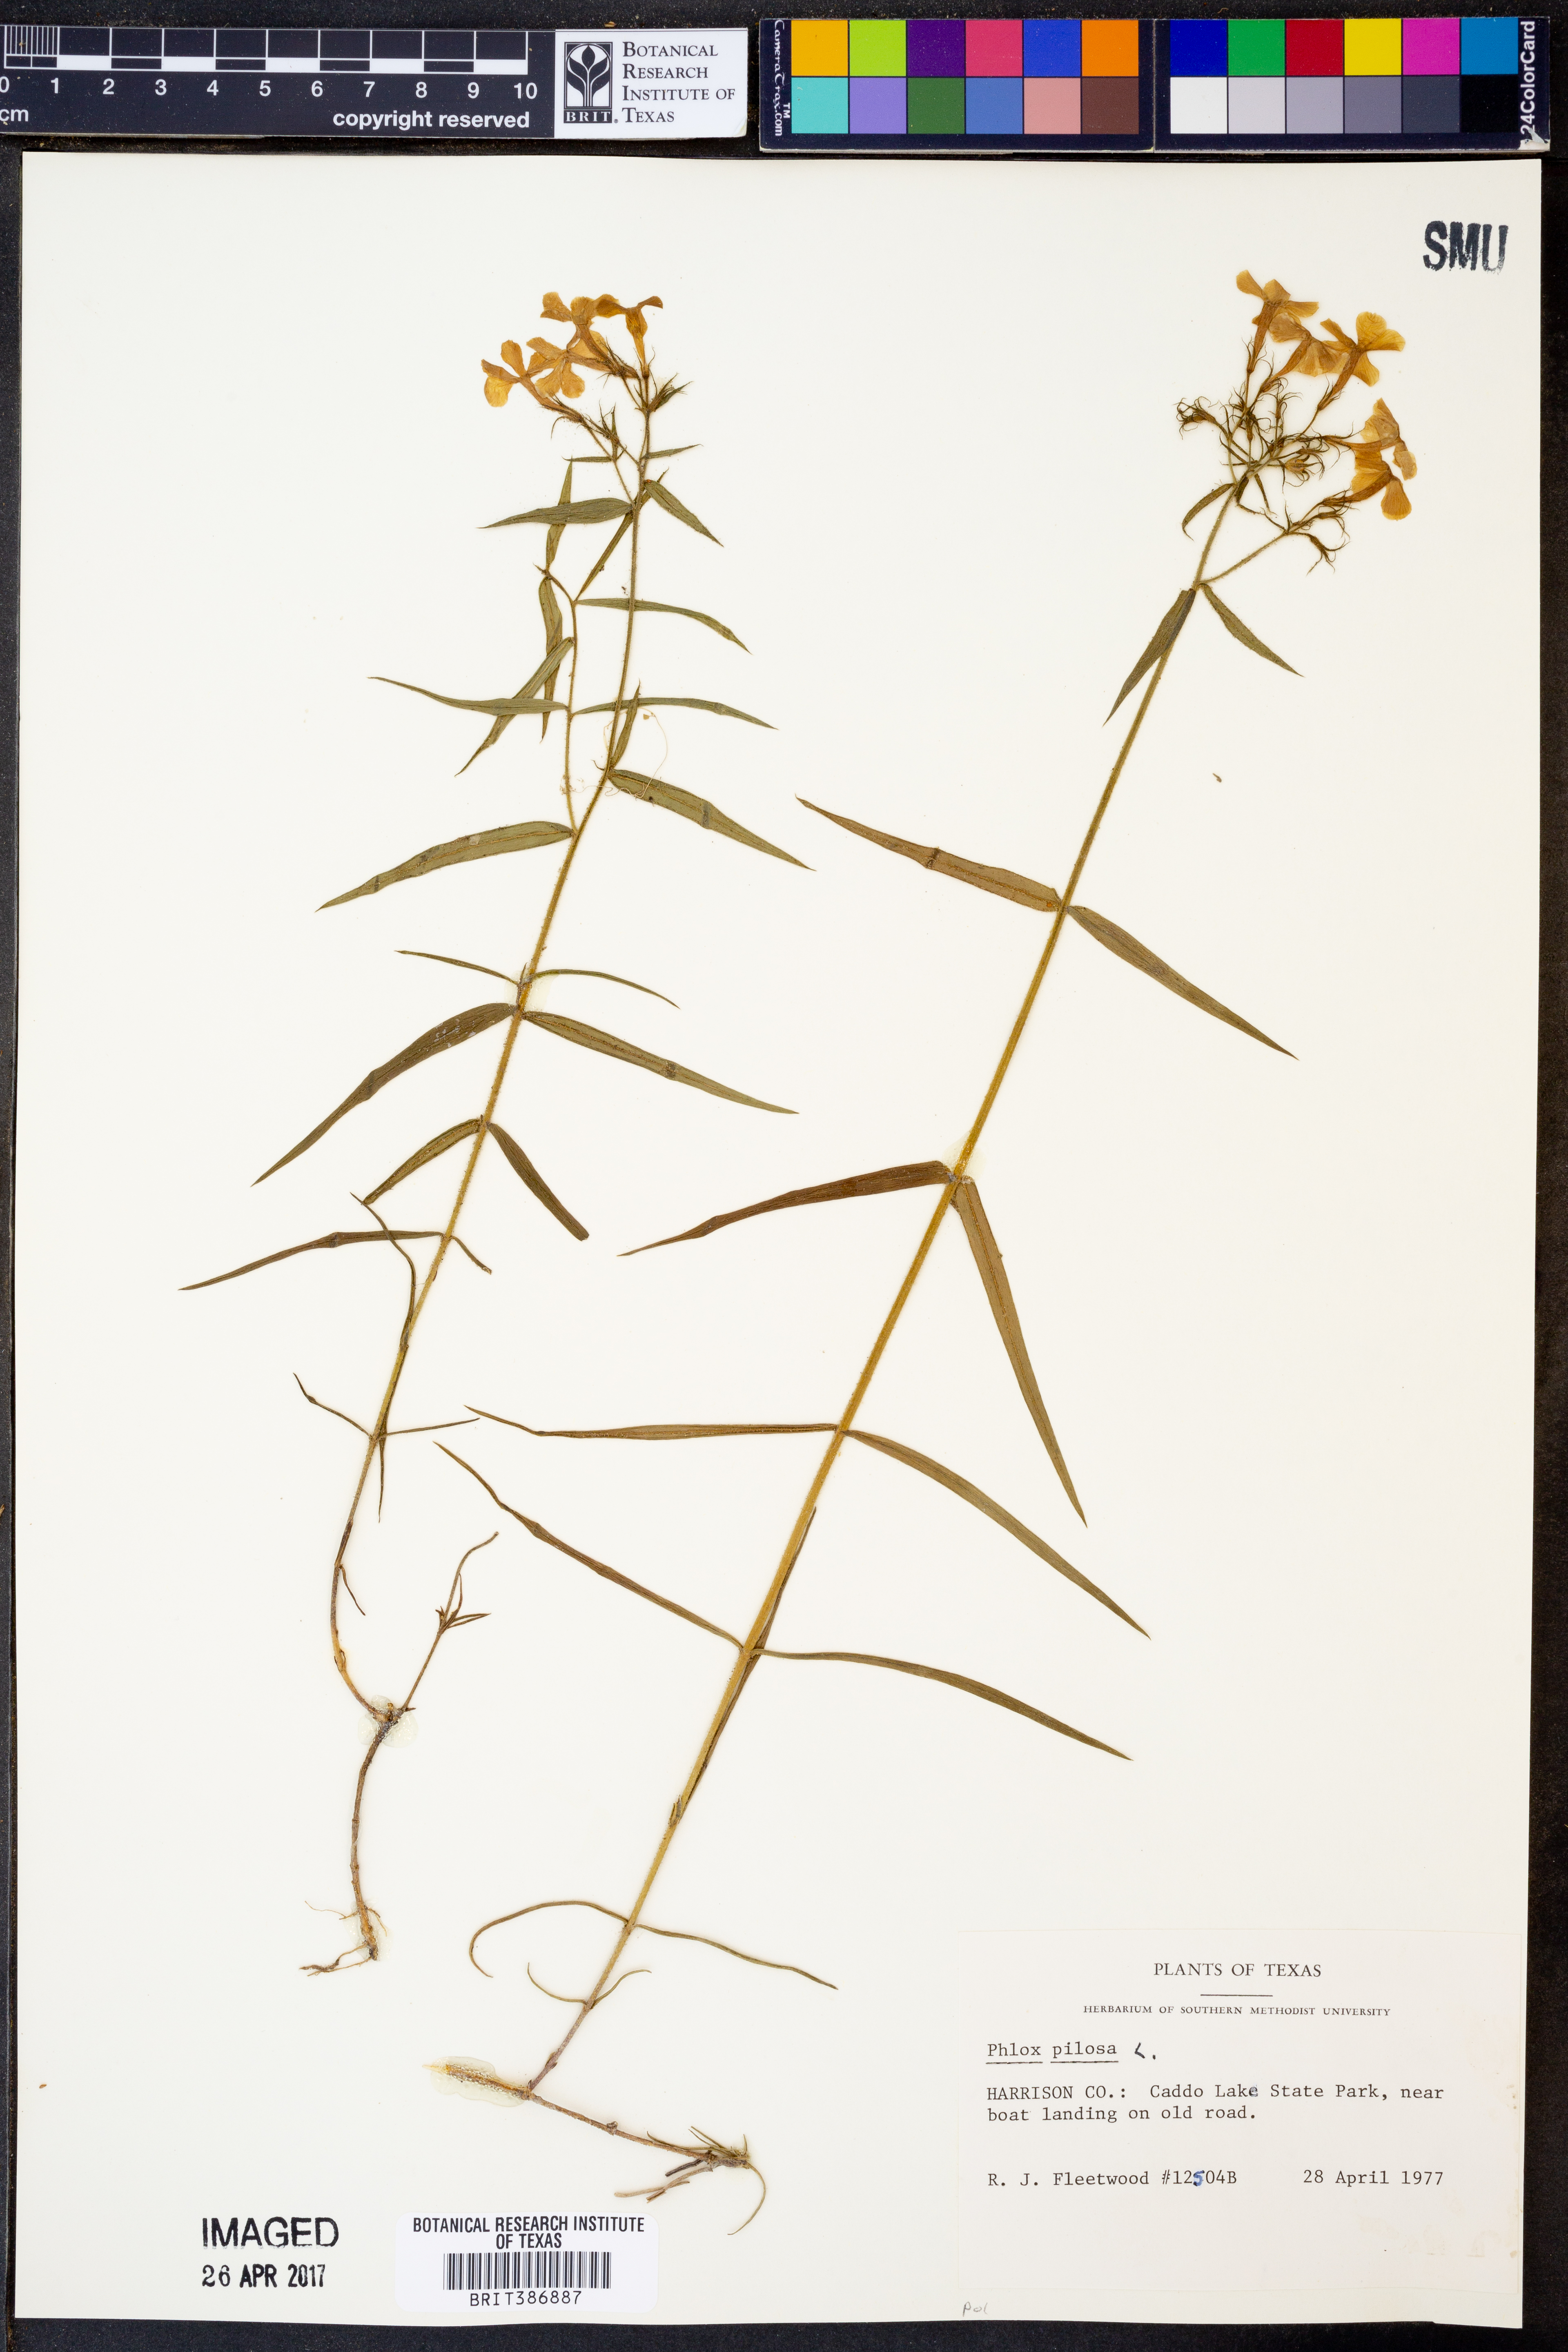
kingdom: Plantae
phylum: Tracheophyta
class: Magnoliopsida
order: Ericales
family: Polemoniaceae
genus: Phlox
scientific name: Phlox pilosa
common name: Prairie phlox
